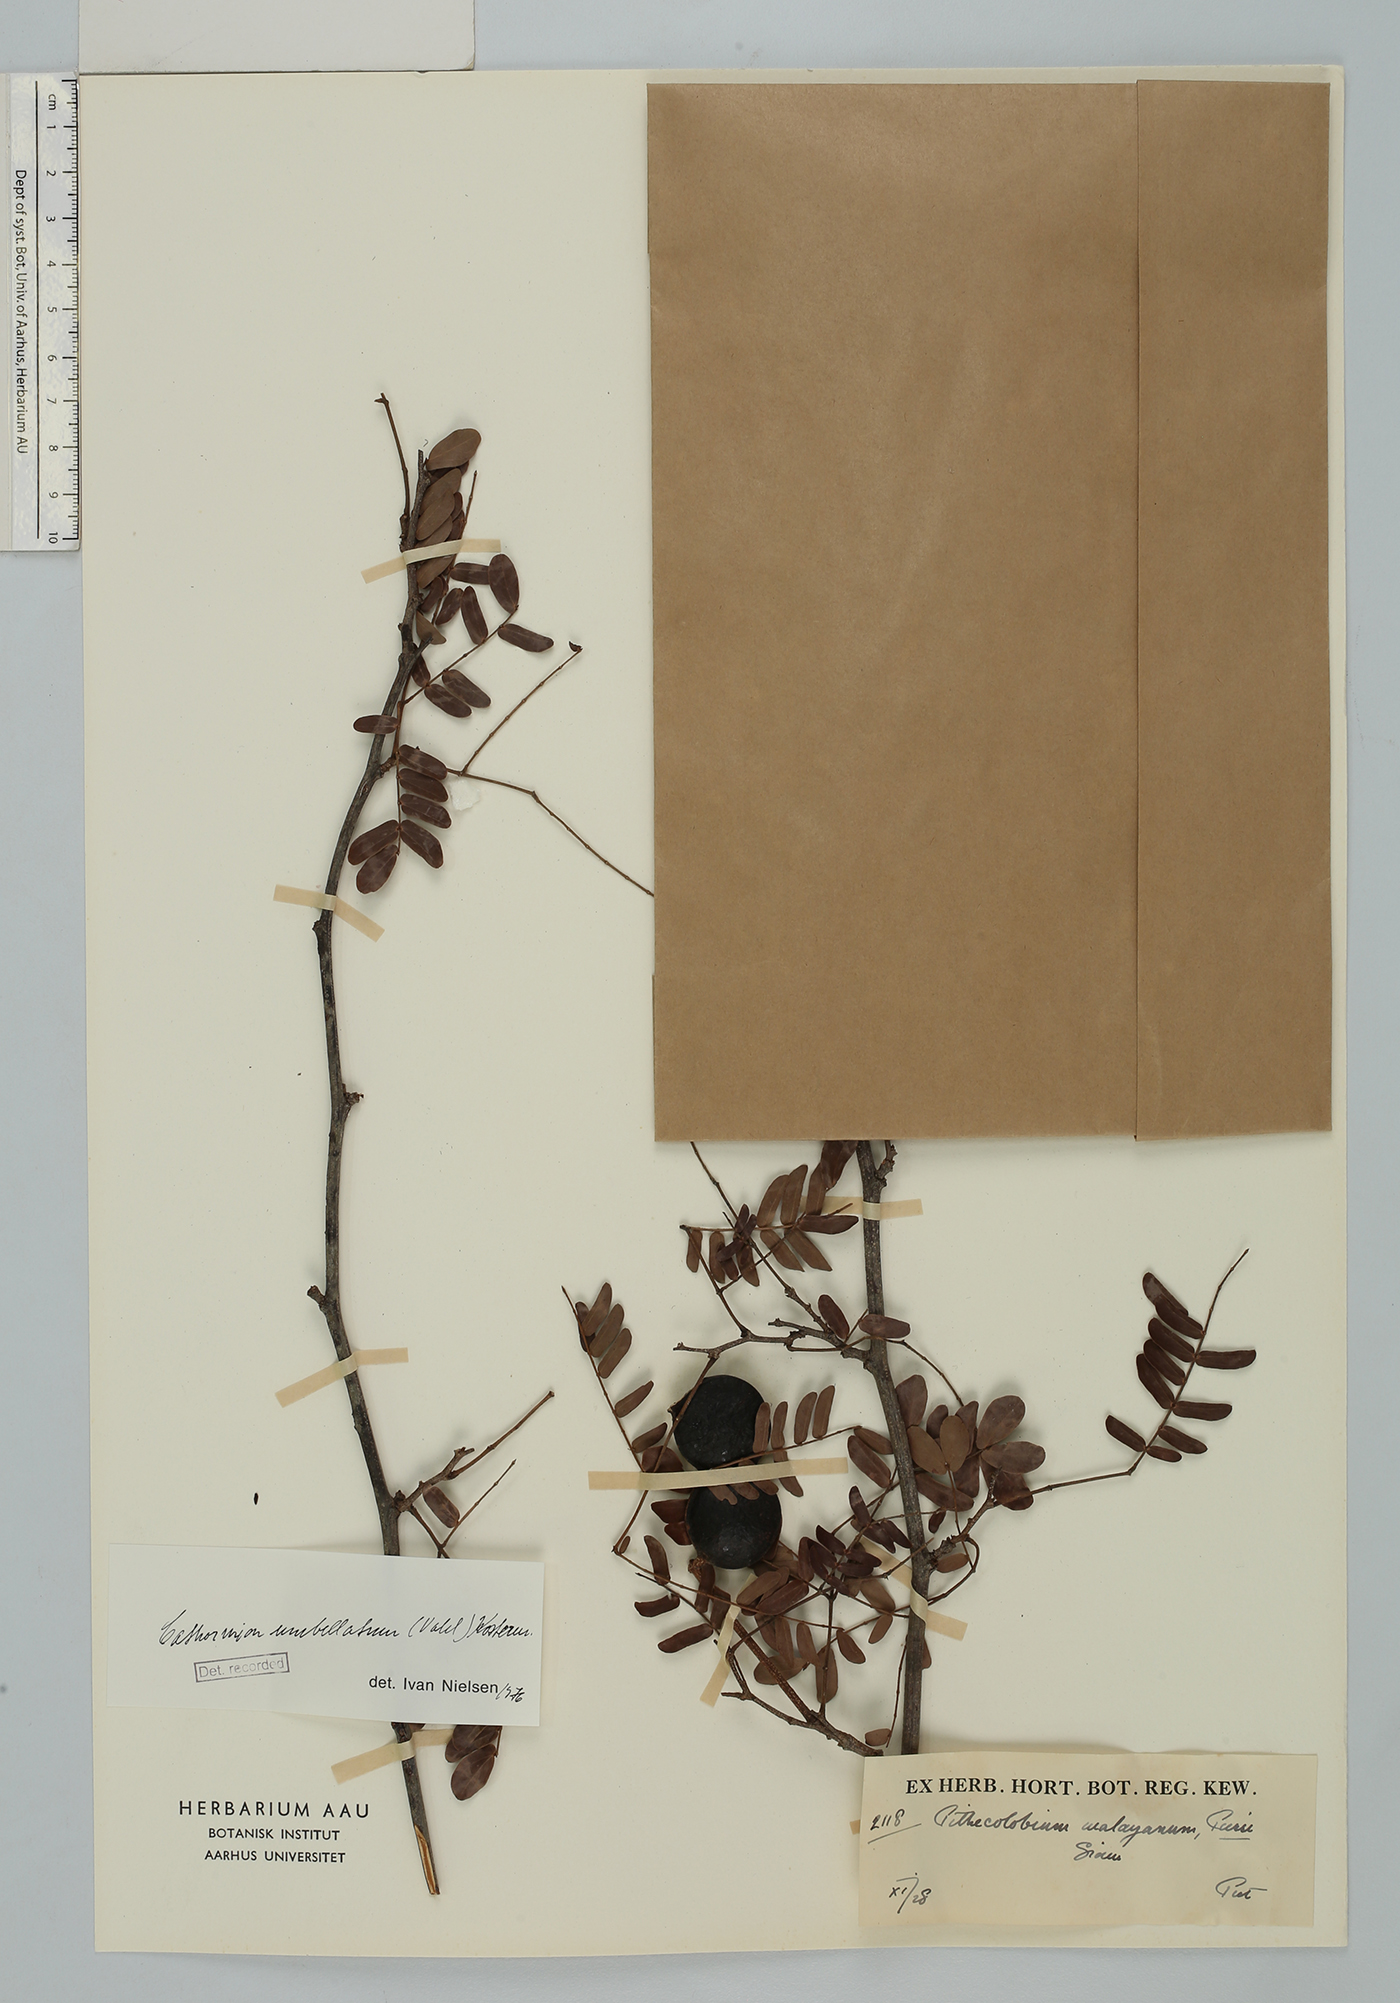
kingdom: Plantae
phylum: Tracheophyta
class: Magnoliopsida
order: Fabales
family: Fabaceae
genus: Cathormion
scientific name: Cathormion umbellatum
